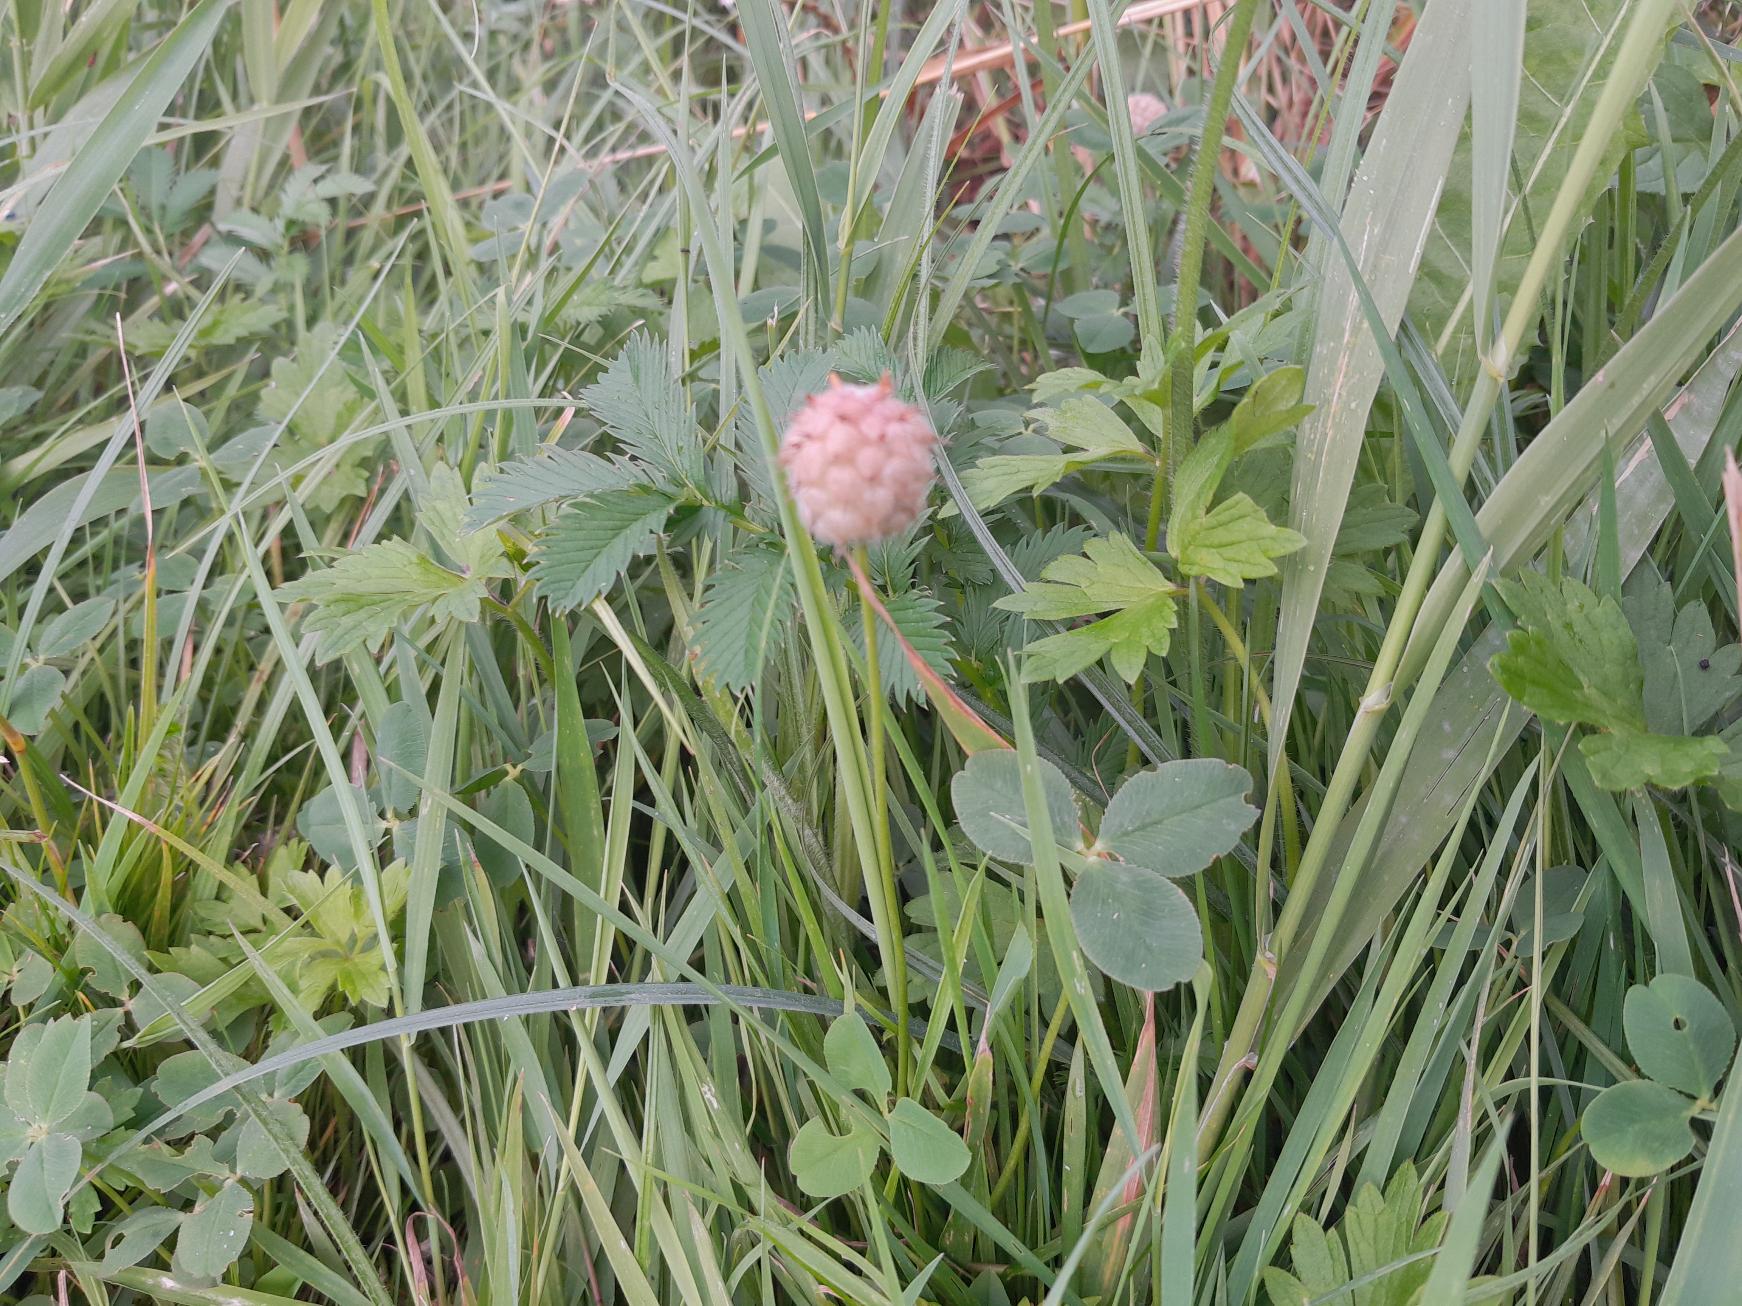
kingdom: Plantae
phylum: Tracheophyta
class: Magnoliopsida
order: Fabales
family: Fabaceae
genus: Trifolium
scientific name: Trifolium fragiferum
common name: Jordbær-kløver
